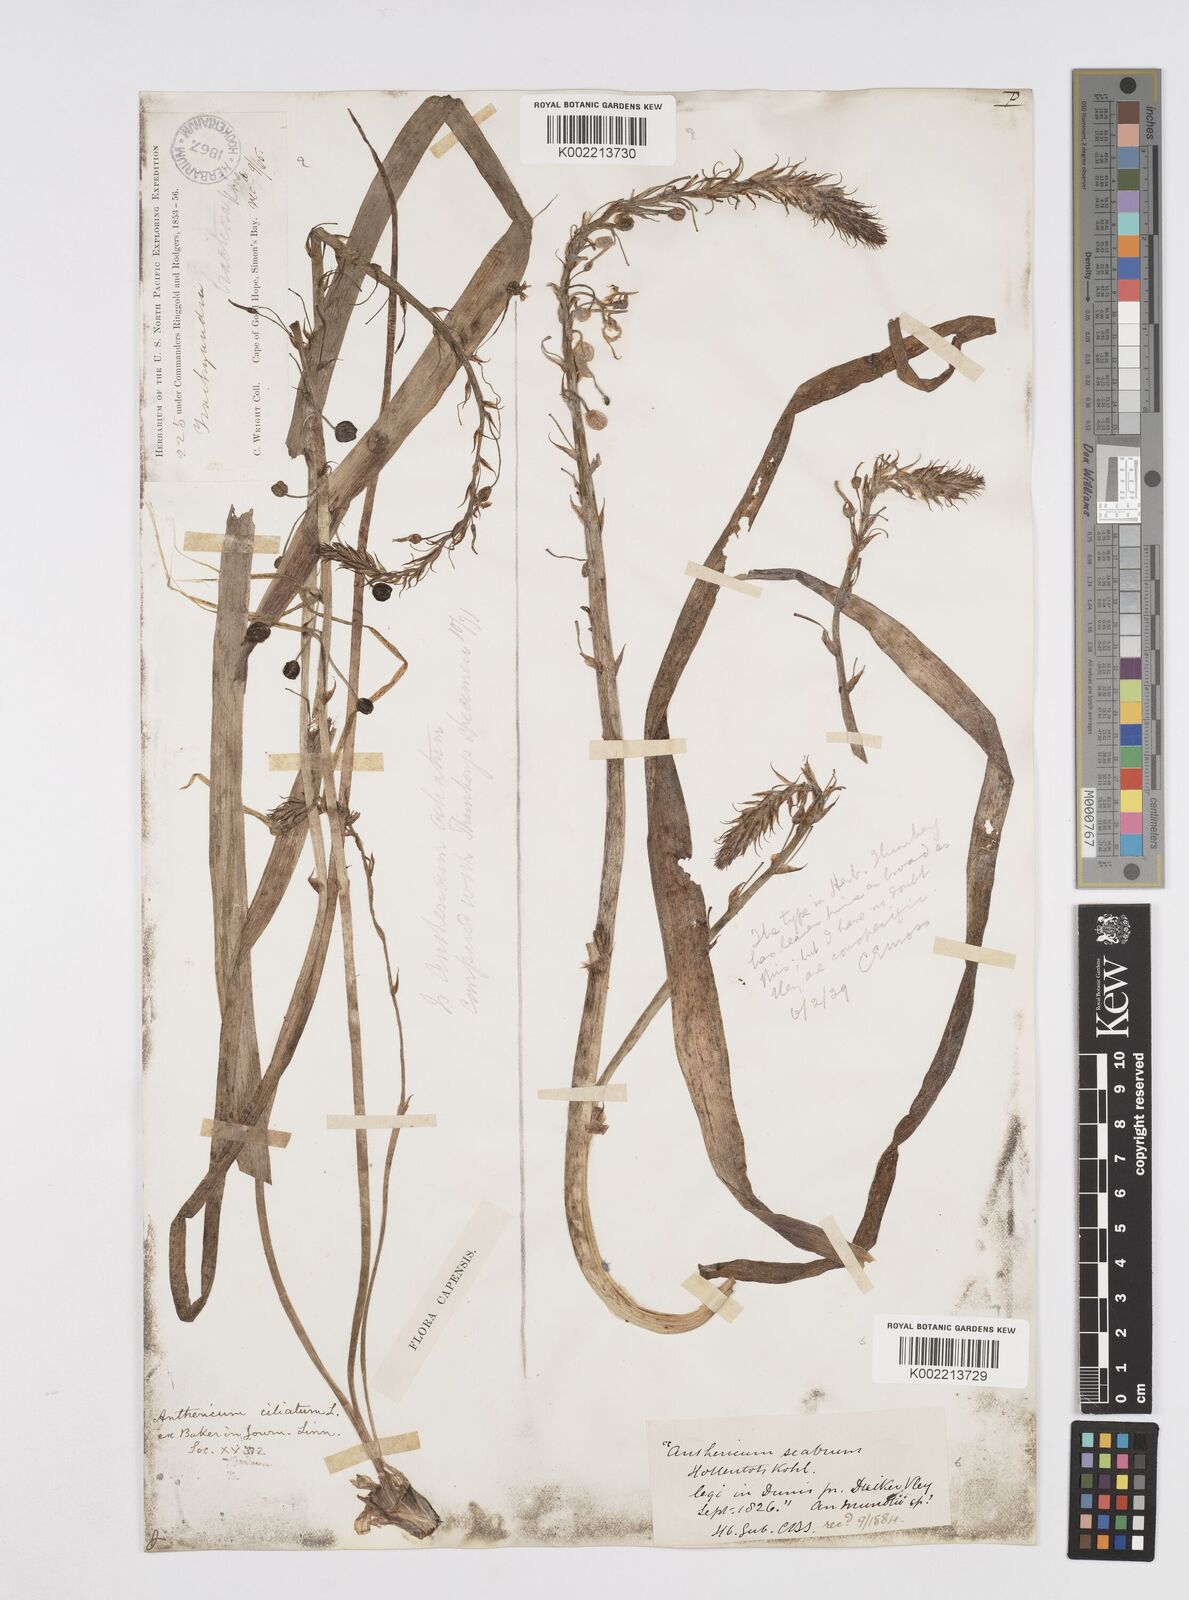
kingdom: Plantae
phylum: Tracheophyta
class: Liliopsida
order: Asparagales
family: Asphodelaceae
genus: Trachyandra
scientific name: Trachyandra ciliata
